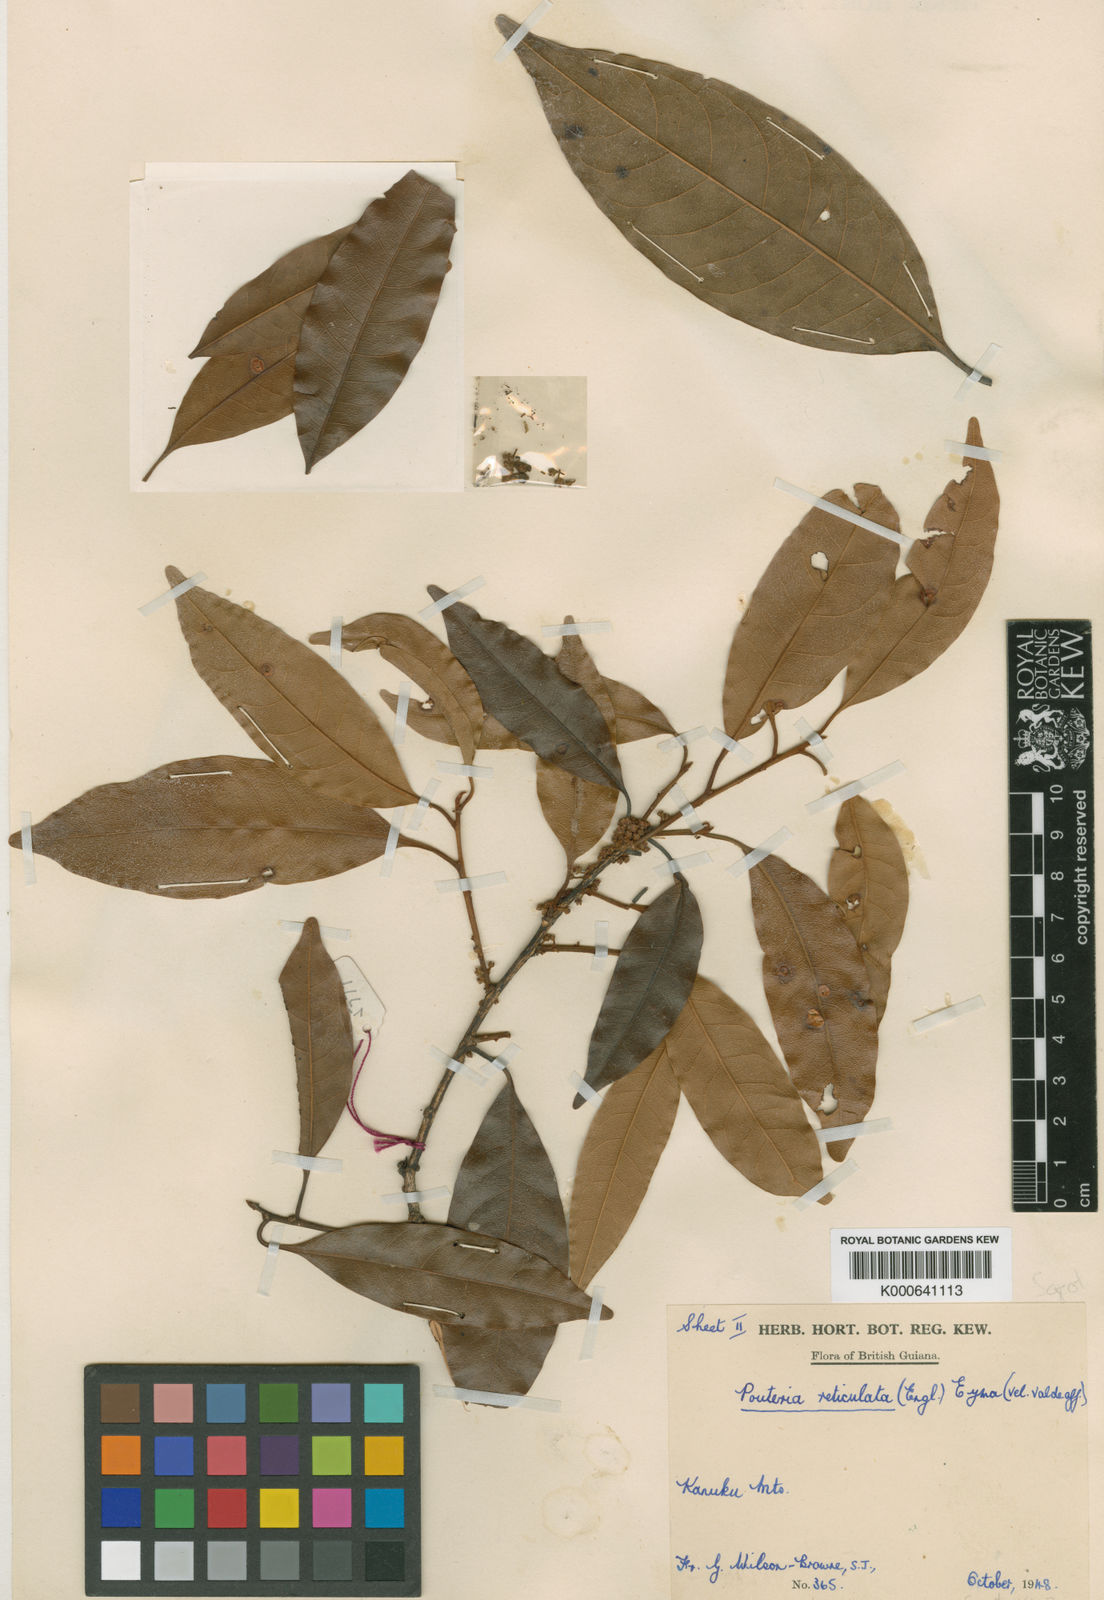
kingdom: Plantae
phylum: Tracheophyta
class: Magnoliopsida
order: Ericales
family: Sapotaceae
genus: Pouteria
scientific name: Pouteria reticulata
